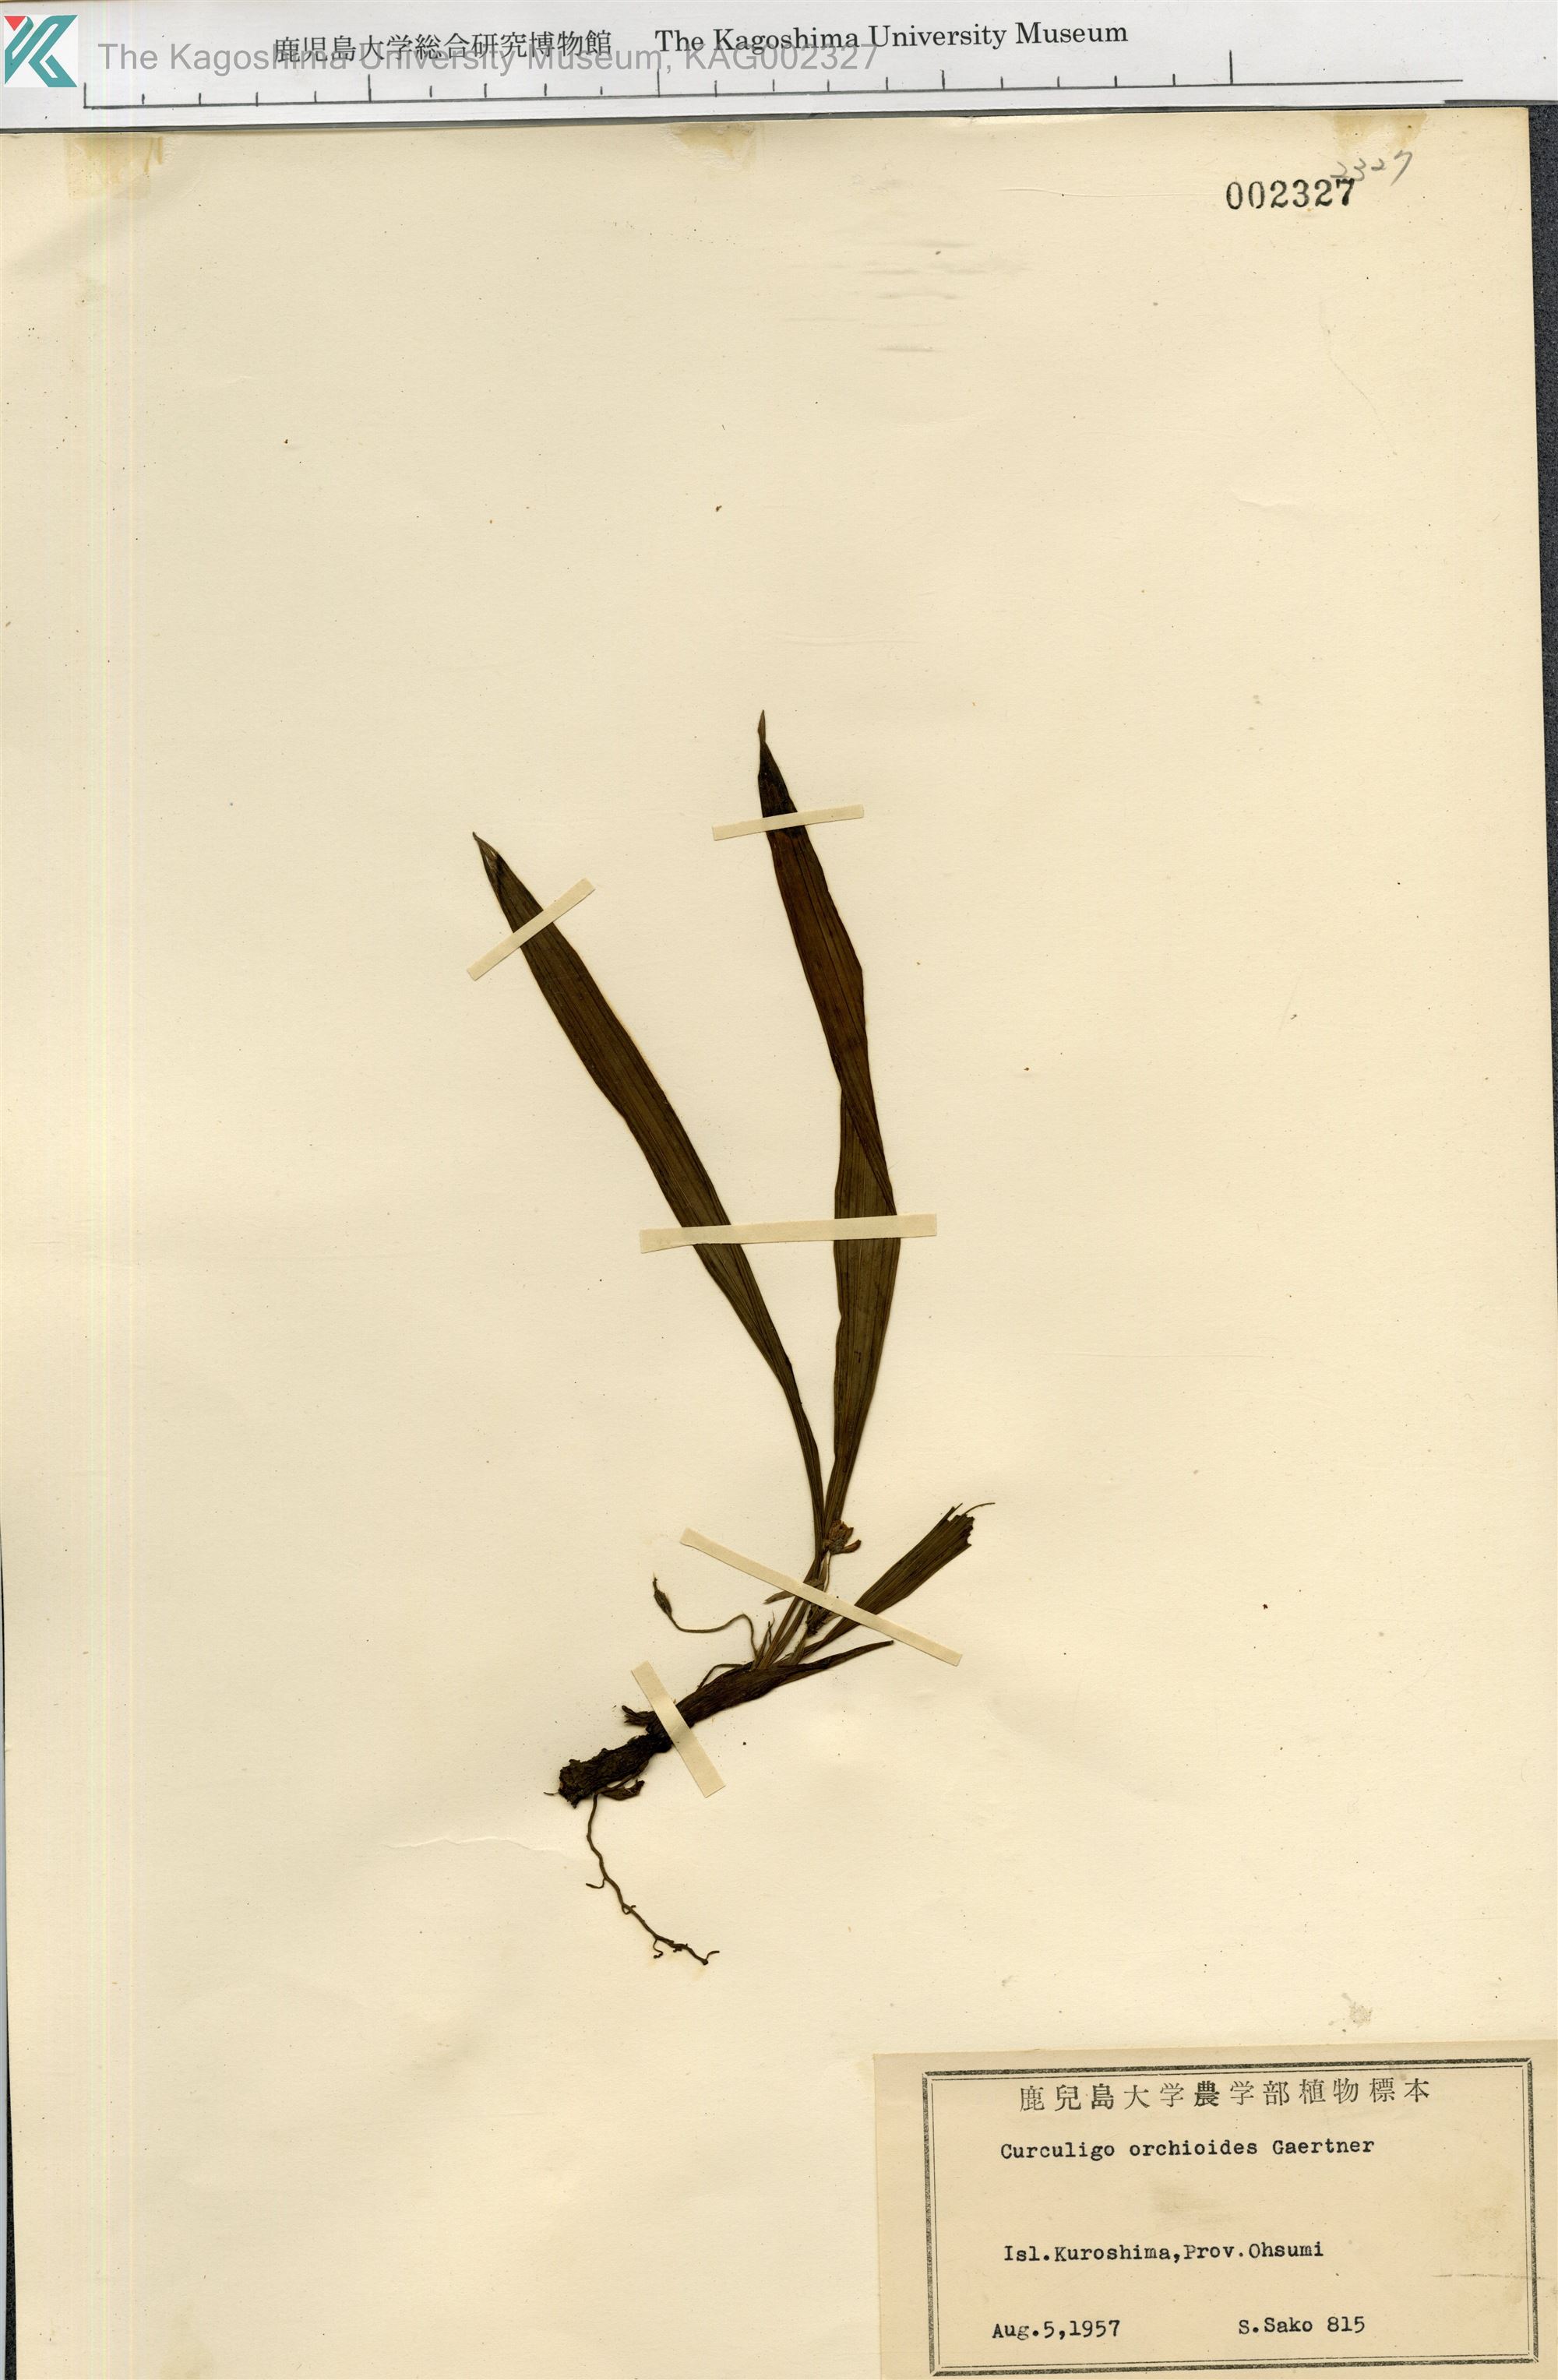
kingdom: Plantae
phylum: Tracheophyta
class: Liliopsida
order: Asparagales
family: Hypoxidaceae
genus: Curculigo
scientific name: Curculigo orchioides
